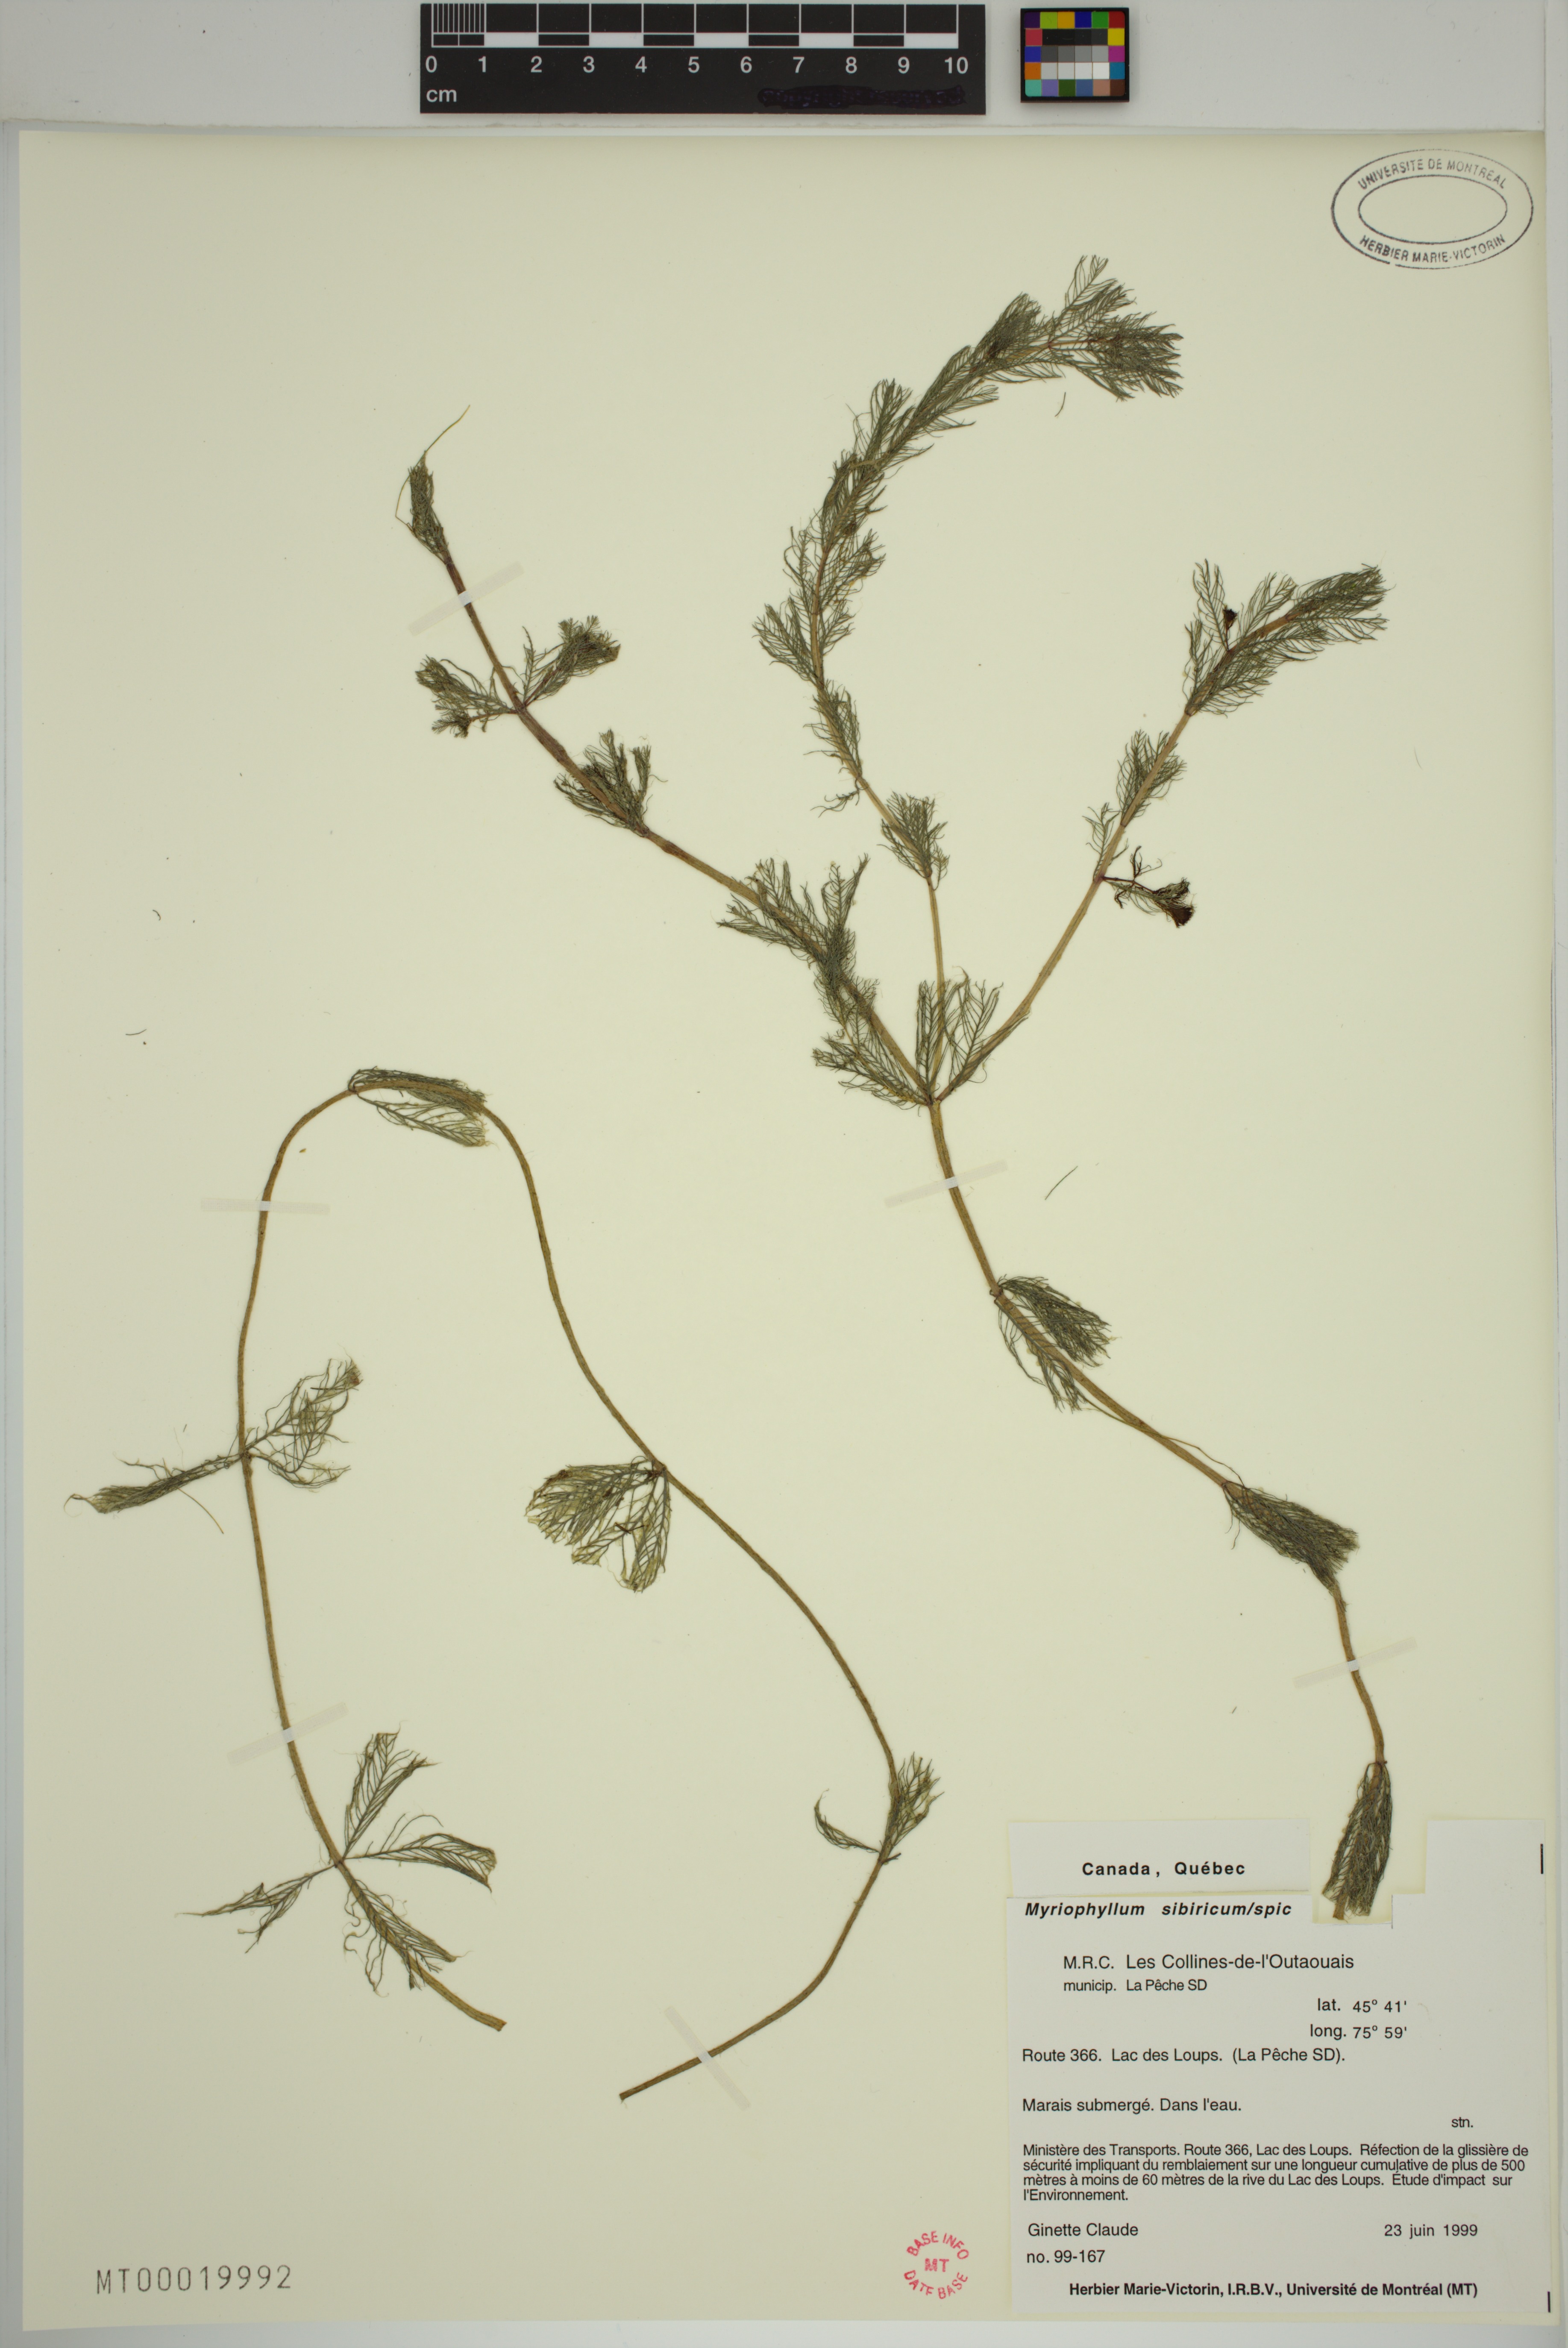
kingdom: Plantae
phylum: Tracheophyta
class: Magnoliopsida
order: Saxifragales
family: Haloragaceae
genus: Myriophyllum
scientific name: Myriophyllum sibiricum
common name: Siberian water-milfoil
